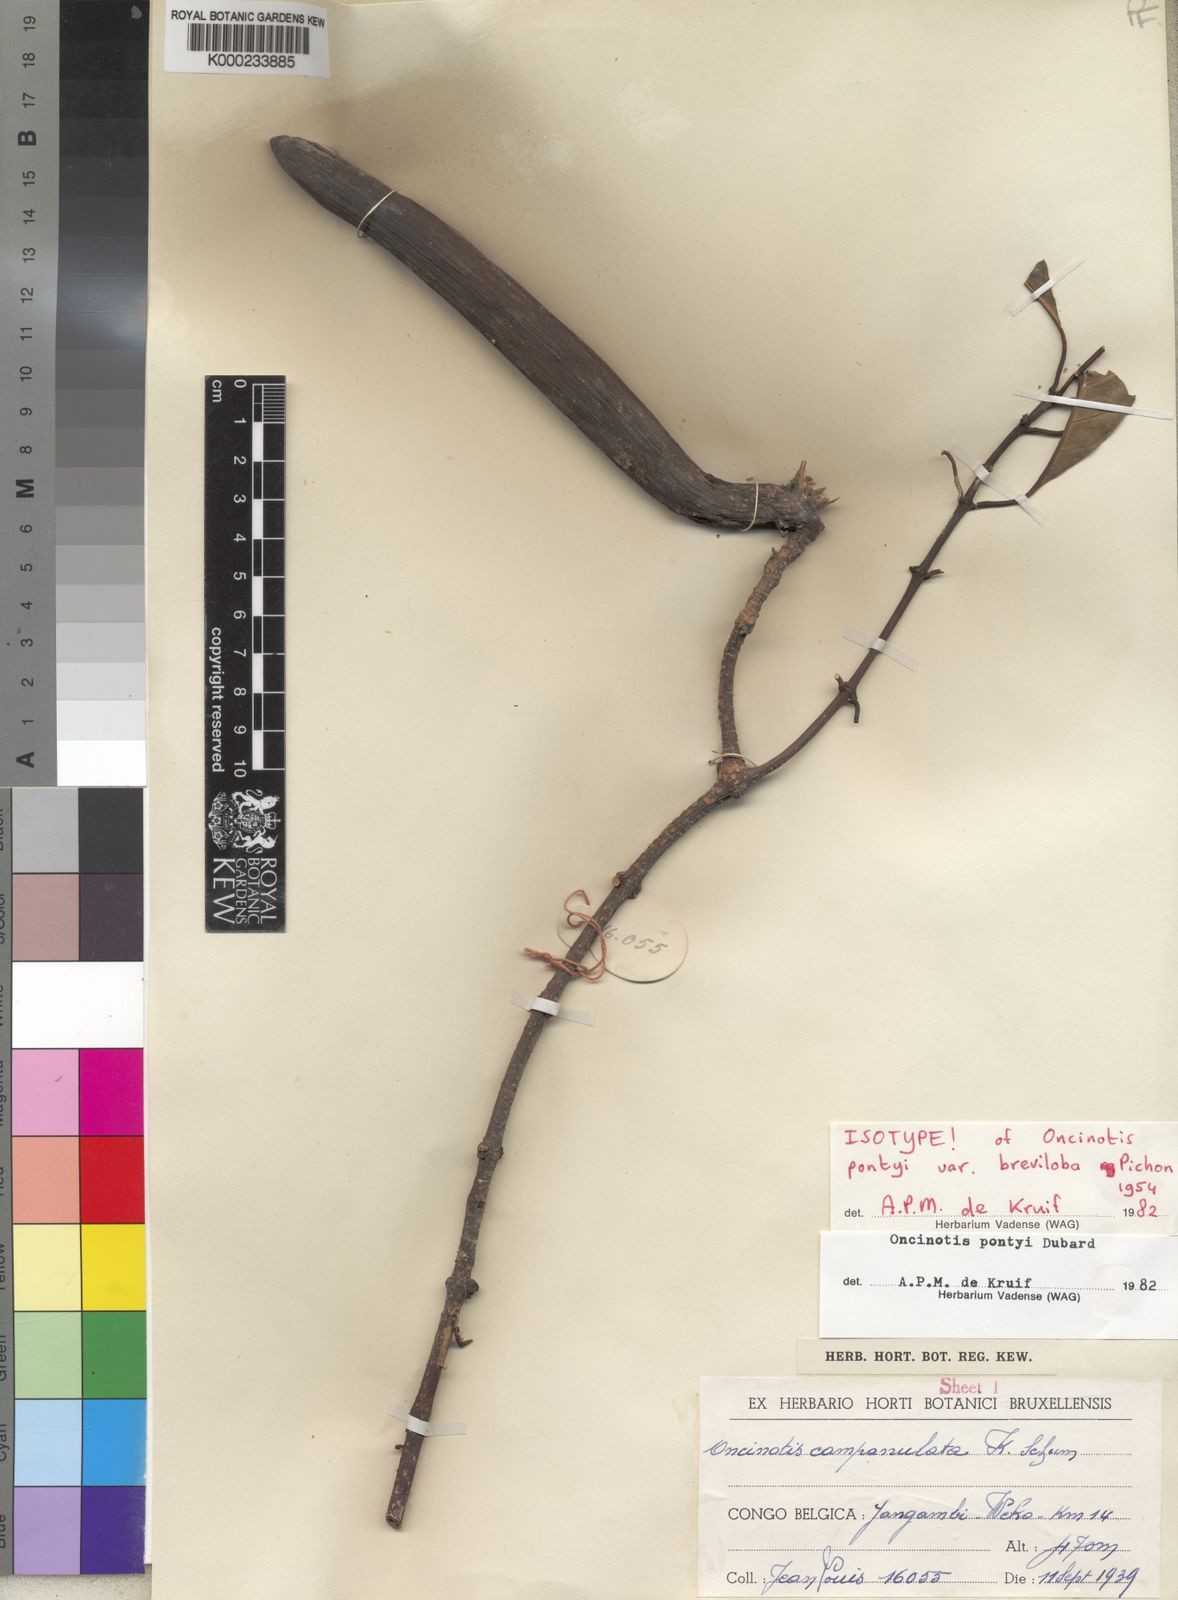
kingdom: Plantae
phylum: Tracheophyta
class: Magnoliopsida
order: Gentianales
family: Apocynaceae
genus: Oncinotis
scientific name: Oncinotis pontyi
